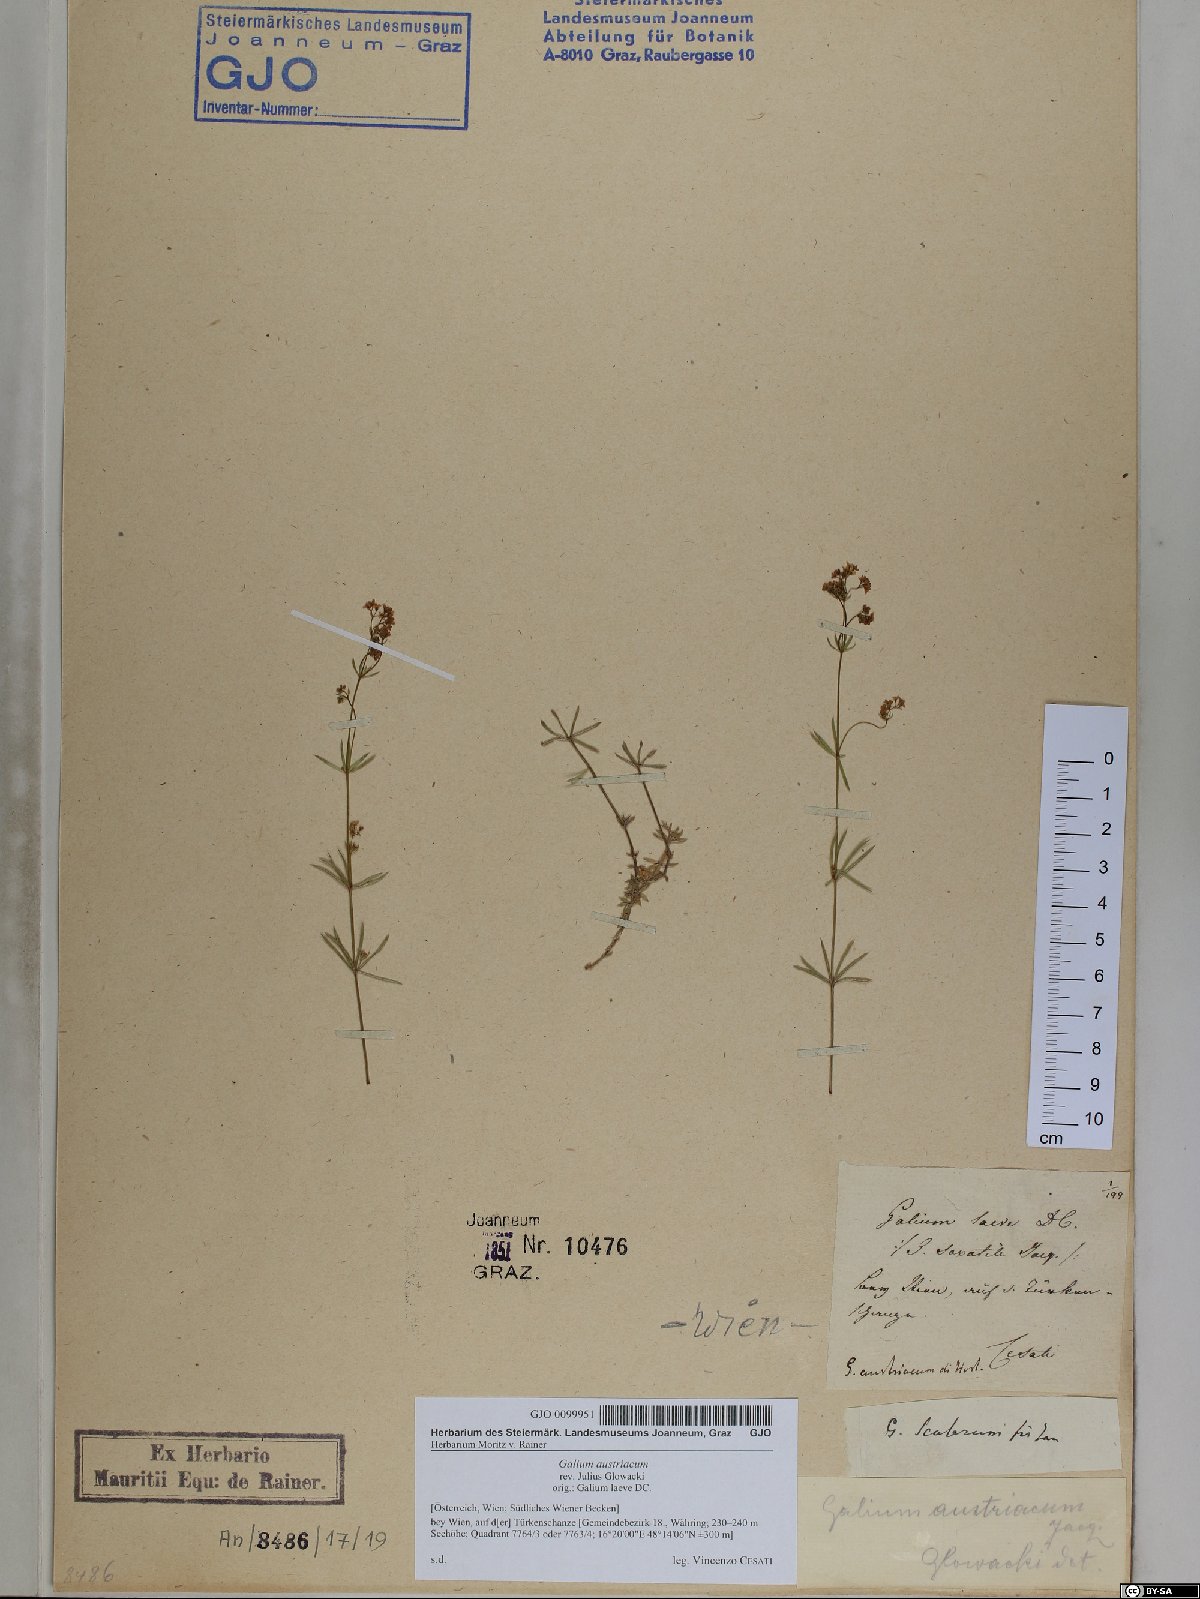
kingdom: Plantae
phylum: Tracheophyta
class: Magnoliopsida
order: Gentianales
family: Rubiaceae
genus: Galium
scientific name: Galium austriacum
